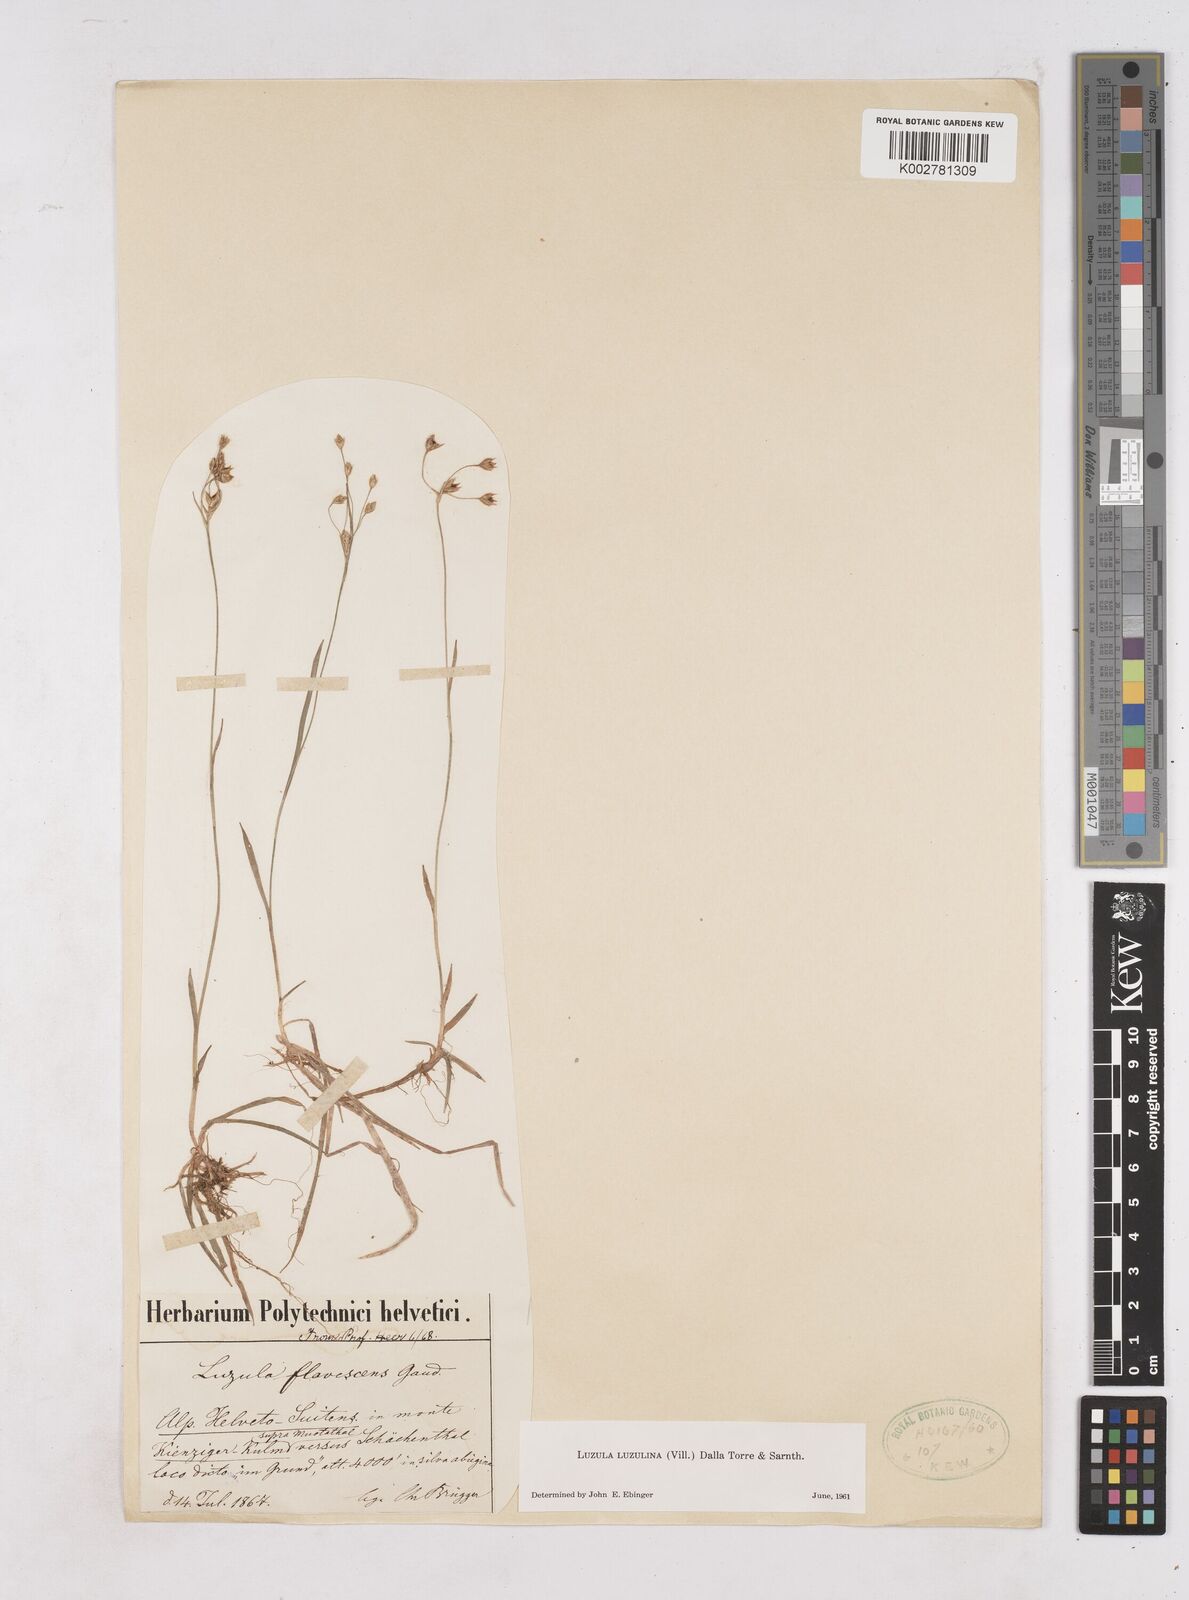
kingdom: Plantae
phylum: Tracheophyta
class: Liliopsida
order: Poales
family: Juncaceae
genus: Luzula
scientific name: Luzula luzulina
